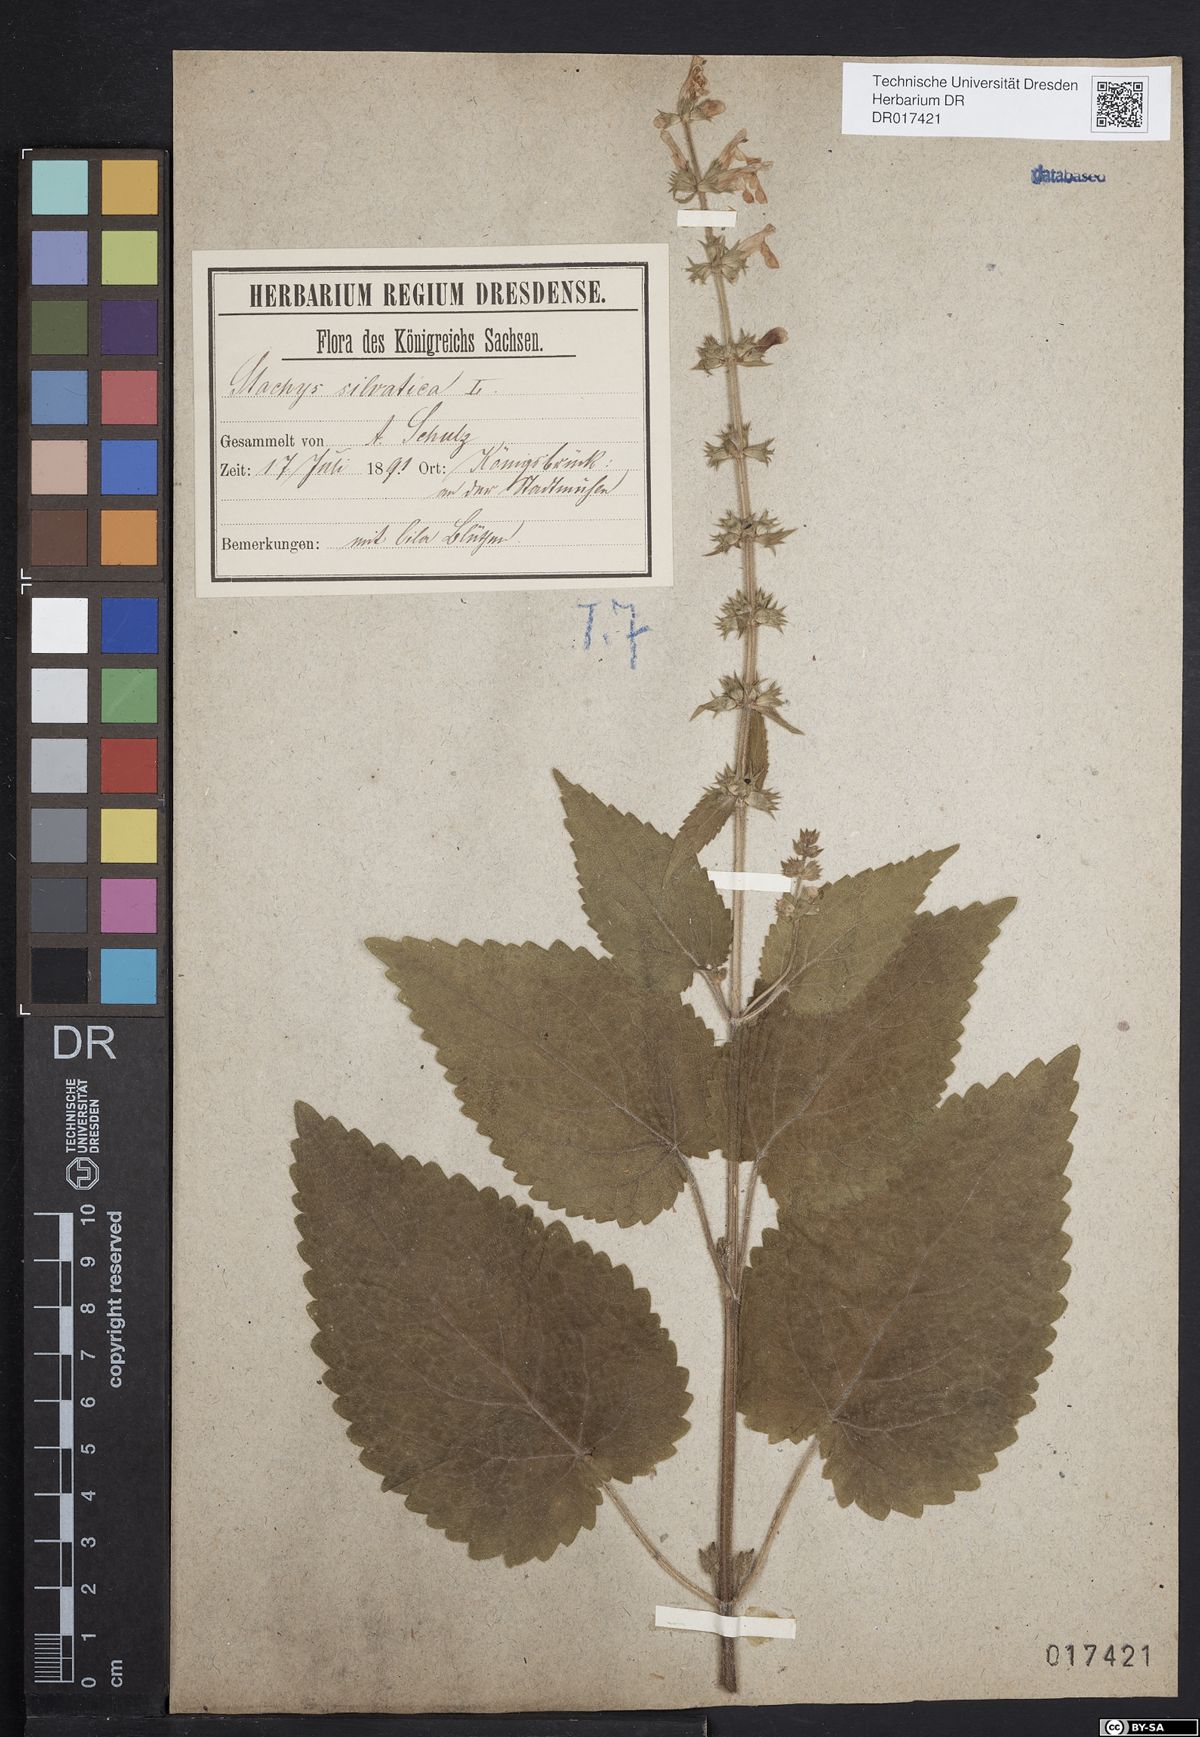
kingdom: Plantae
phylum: Tracheophyta
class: Magnoliopsida
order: Lamiales
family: Lamiaceae
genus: Stachys
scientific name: Stachys sylvatica
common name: Hedge woundwort
